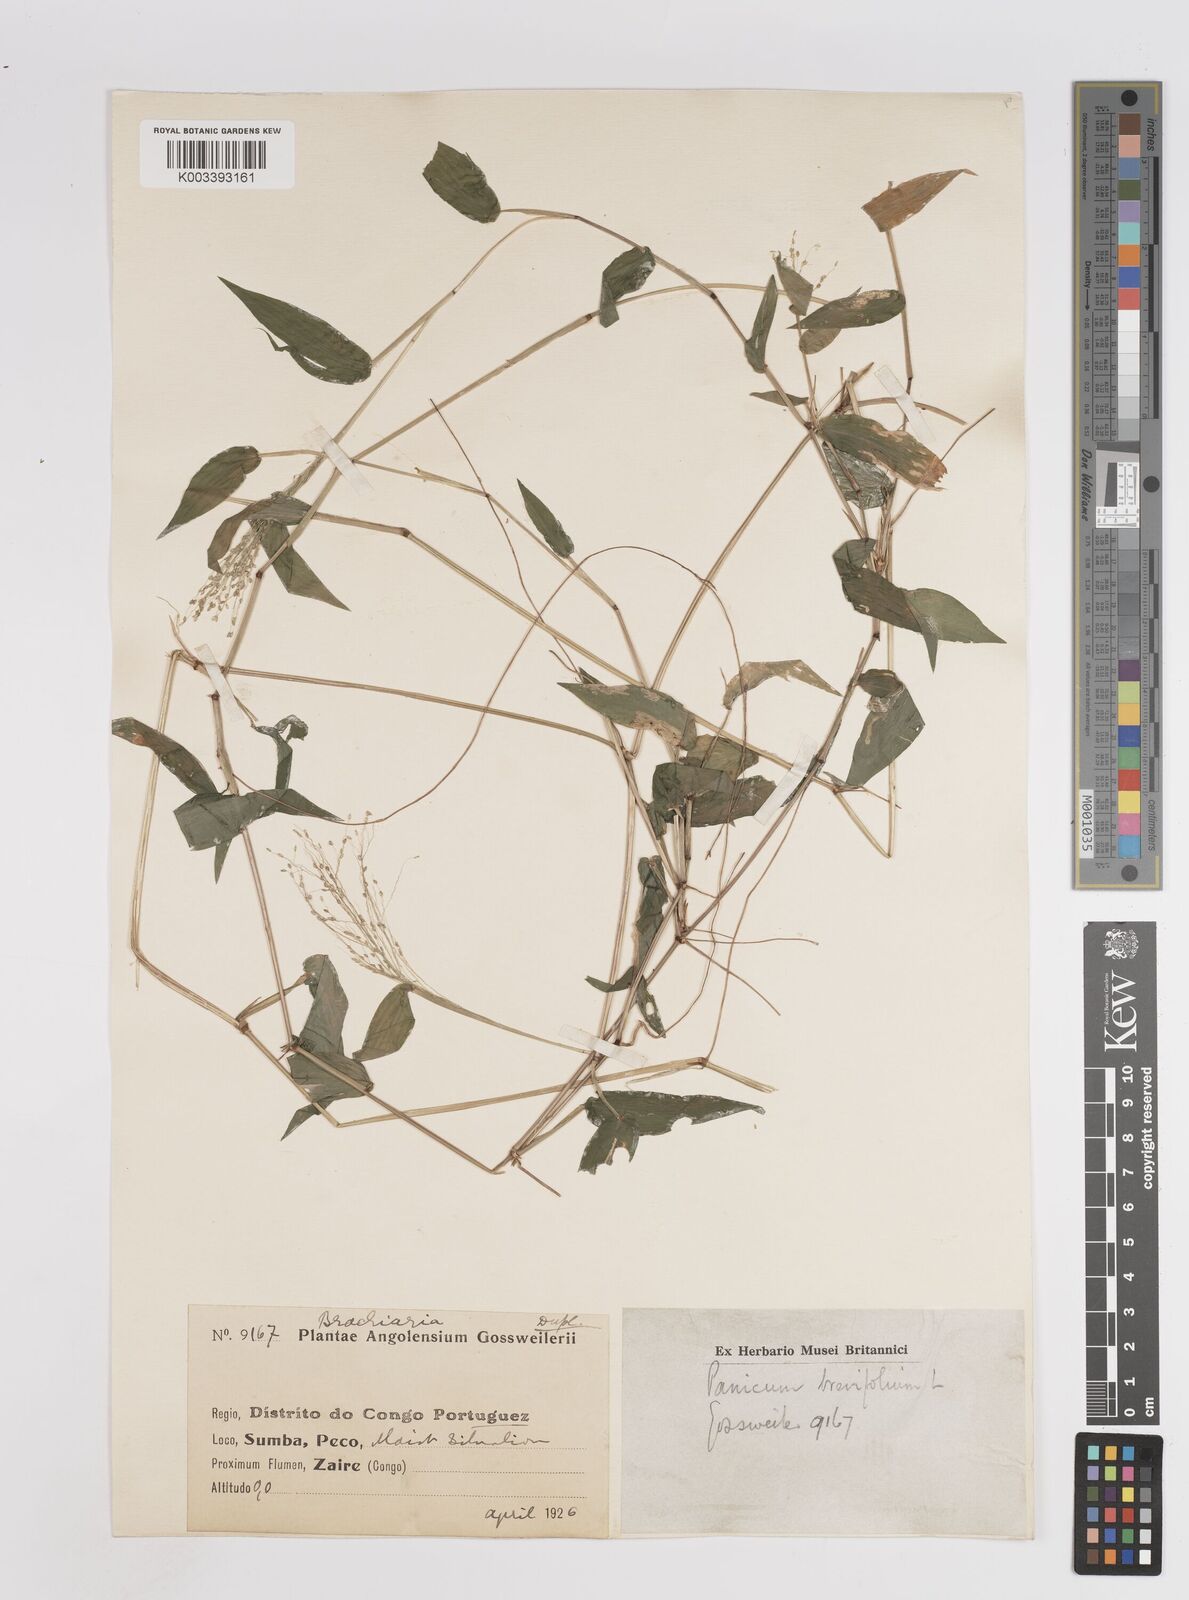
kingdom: Plantae
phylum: Tracheophyta
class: Liliopsida
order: Poales
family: Poaceae
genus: Panicum
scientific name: Panicum brevifolium
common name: Shortleaf panic grass
